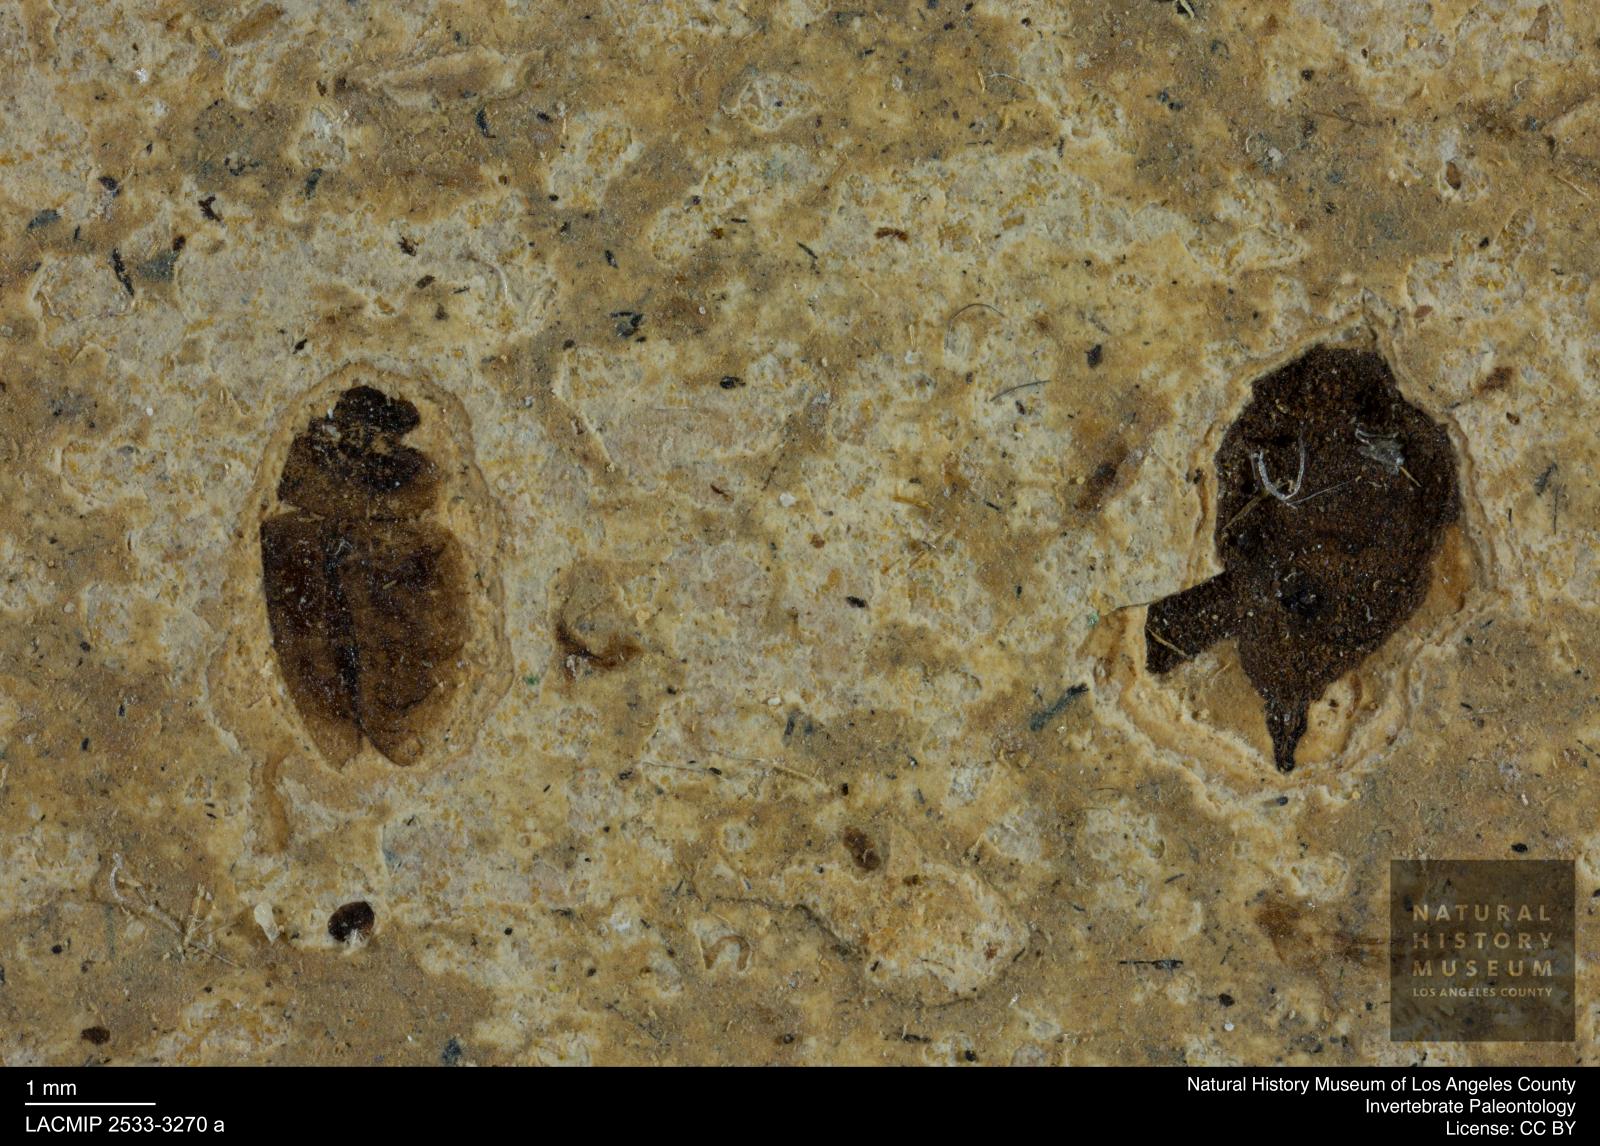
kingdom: Animalia
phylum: Arthropoda
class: Insecta
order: Coleoptera
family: Hydrophilidae
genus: Paracymus
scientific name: Paracymus excitatus
